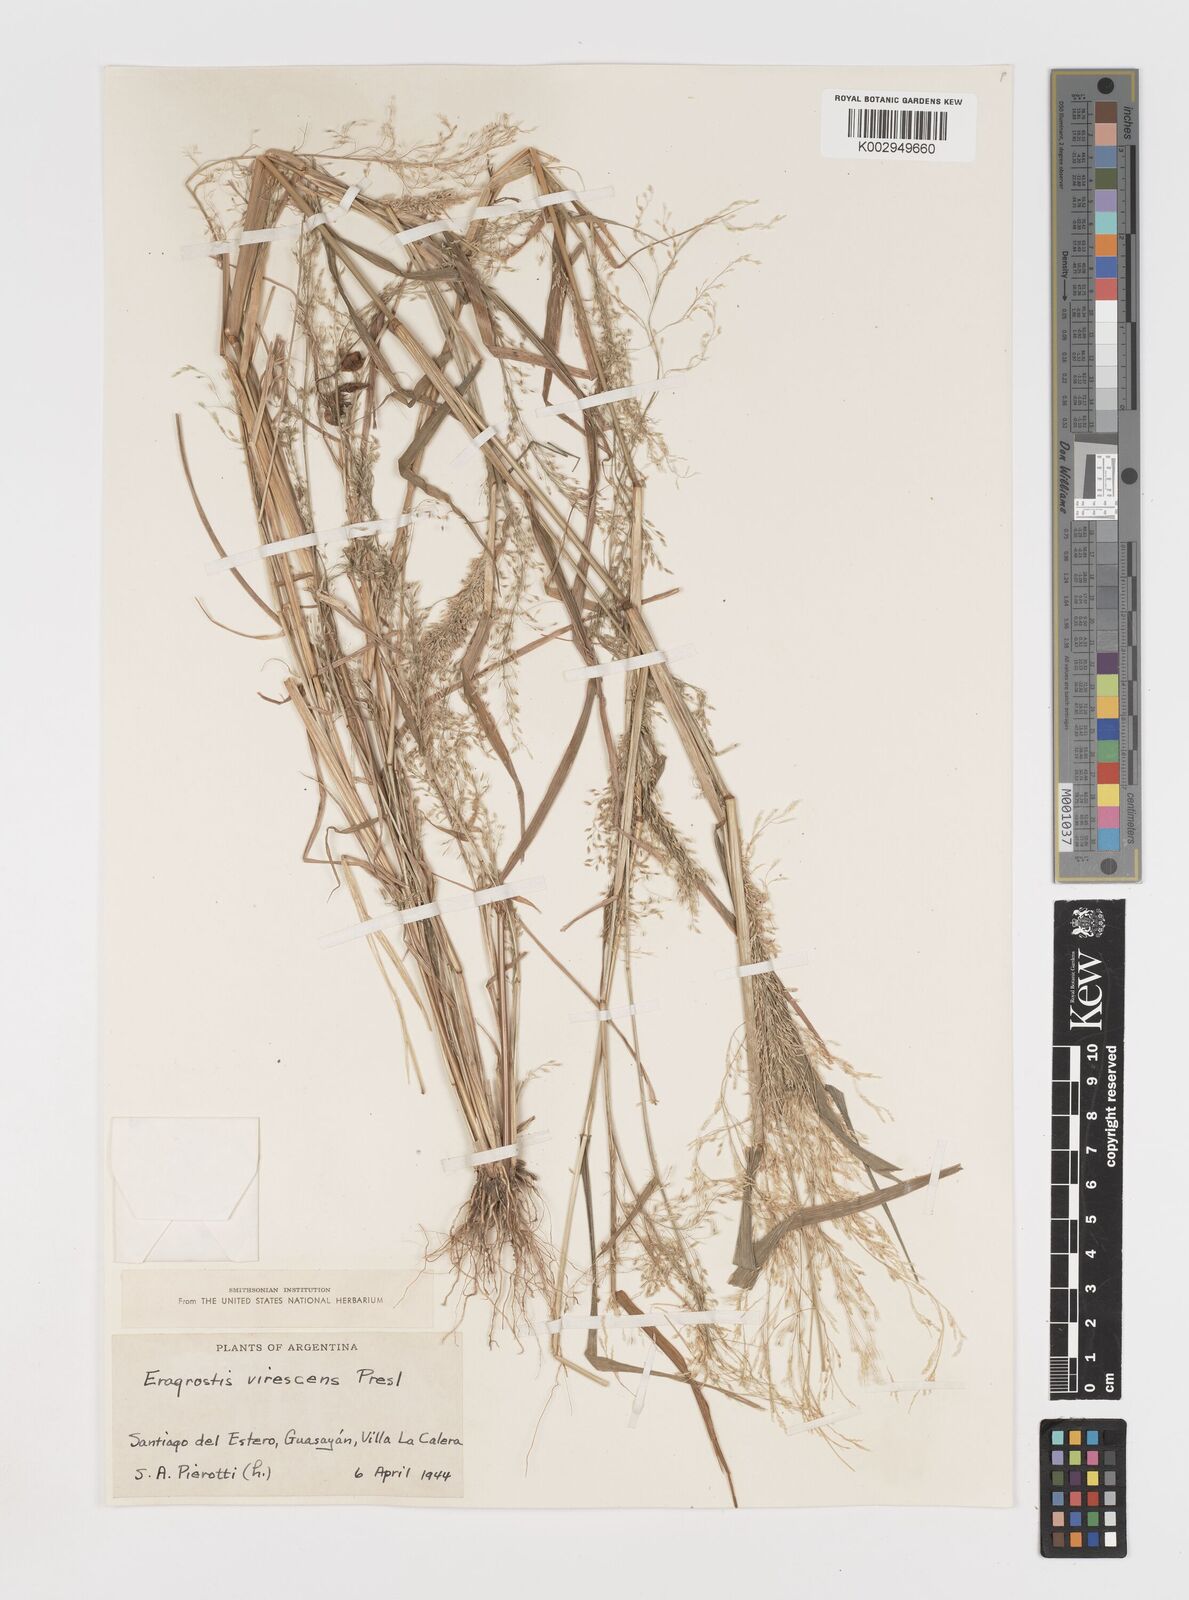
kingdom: Plantae
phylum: Tracheophyta
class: Liliopsida
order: Poales
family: Poaceae
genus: Eragrostis
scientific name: Eragrostis mexicana
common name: Mexican love grass
